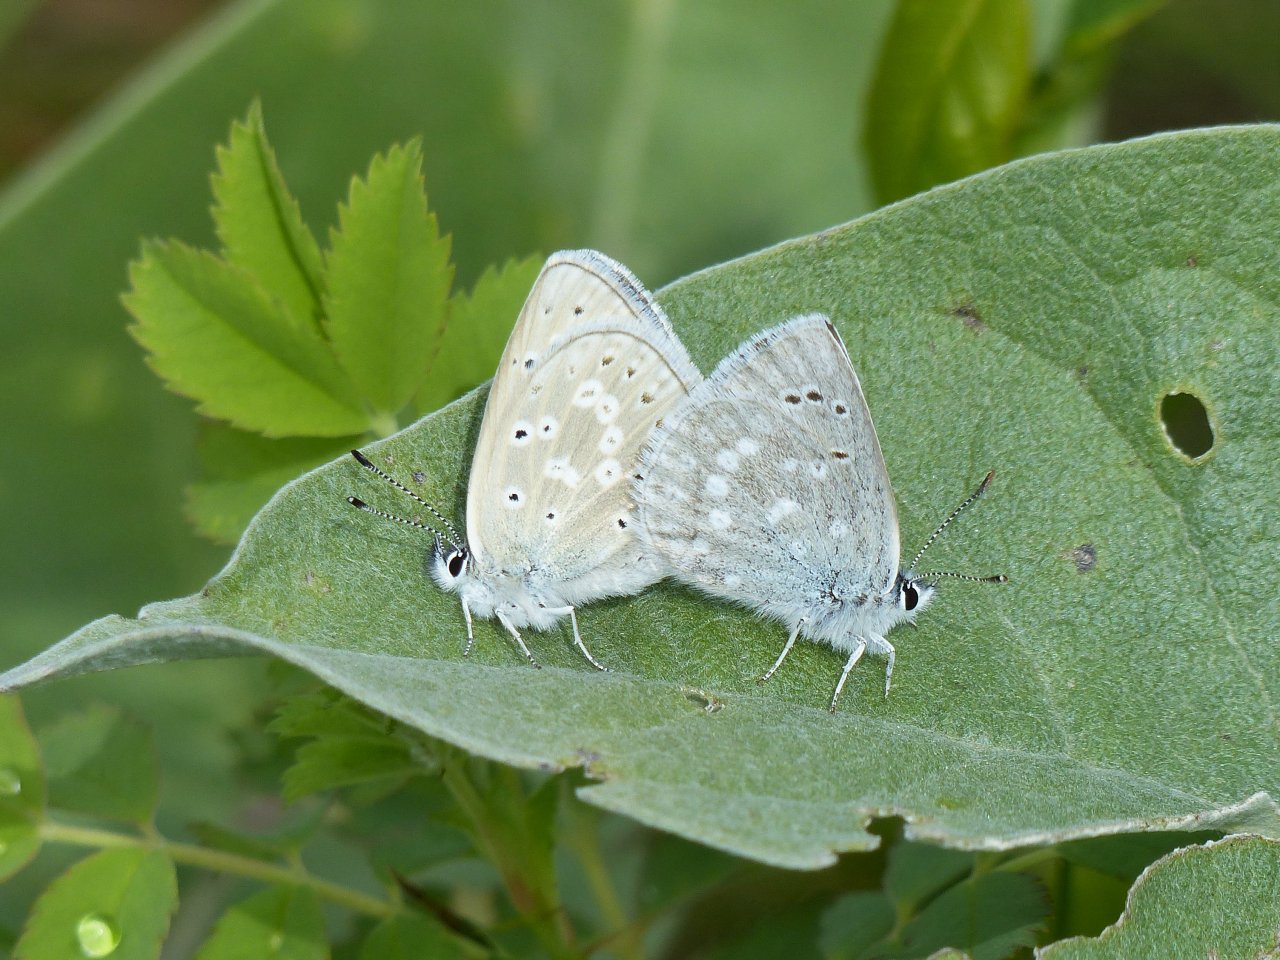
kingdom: Animalia
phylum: Arthropoda
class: Insecta
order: Lepidoptera
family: Lycaenidae
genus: Icaricia
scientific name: Icaricia icarioides
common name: Boisduval's Blue
